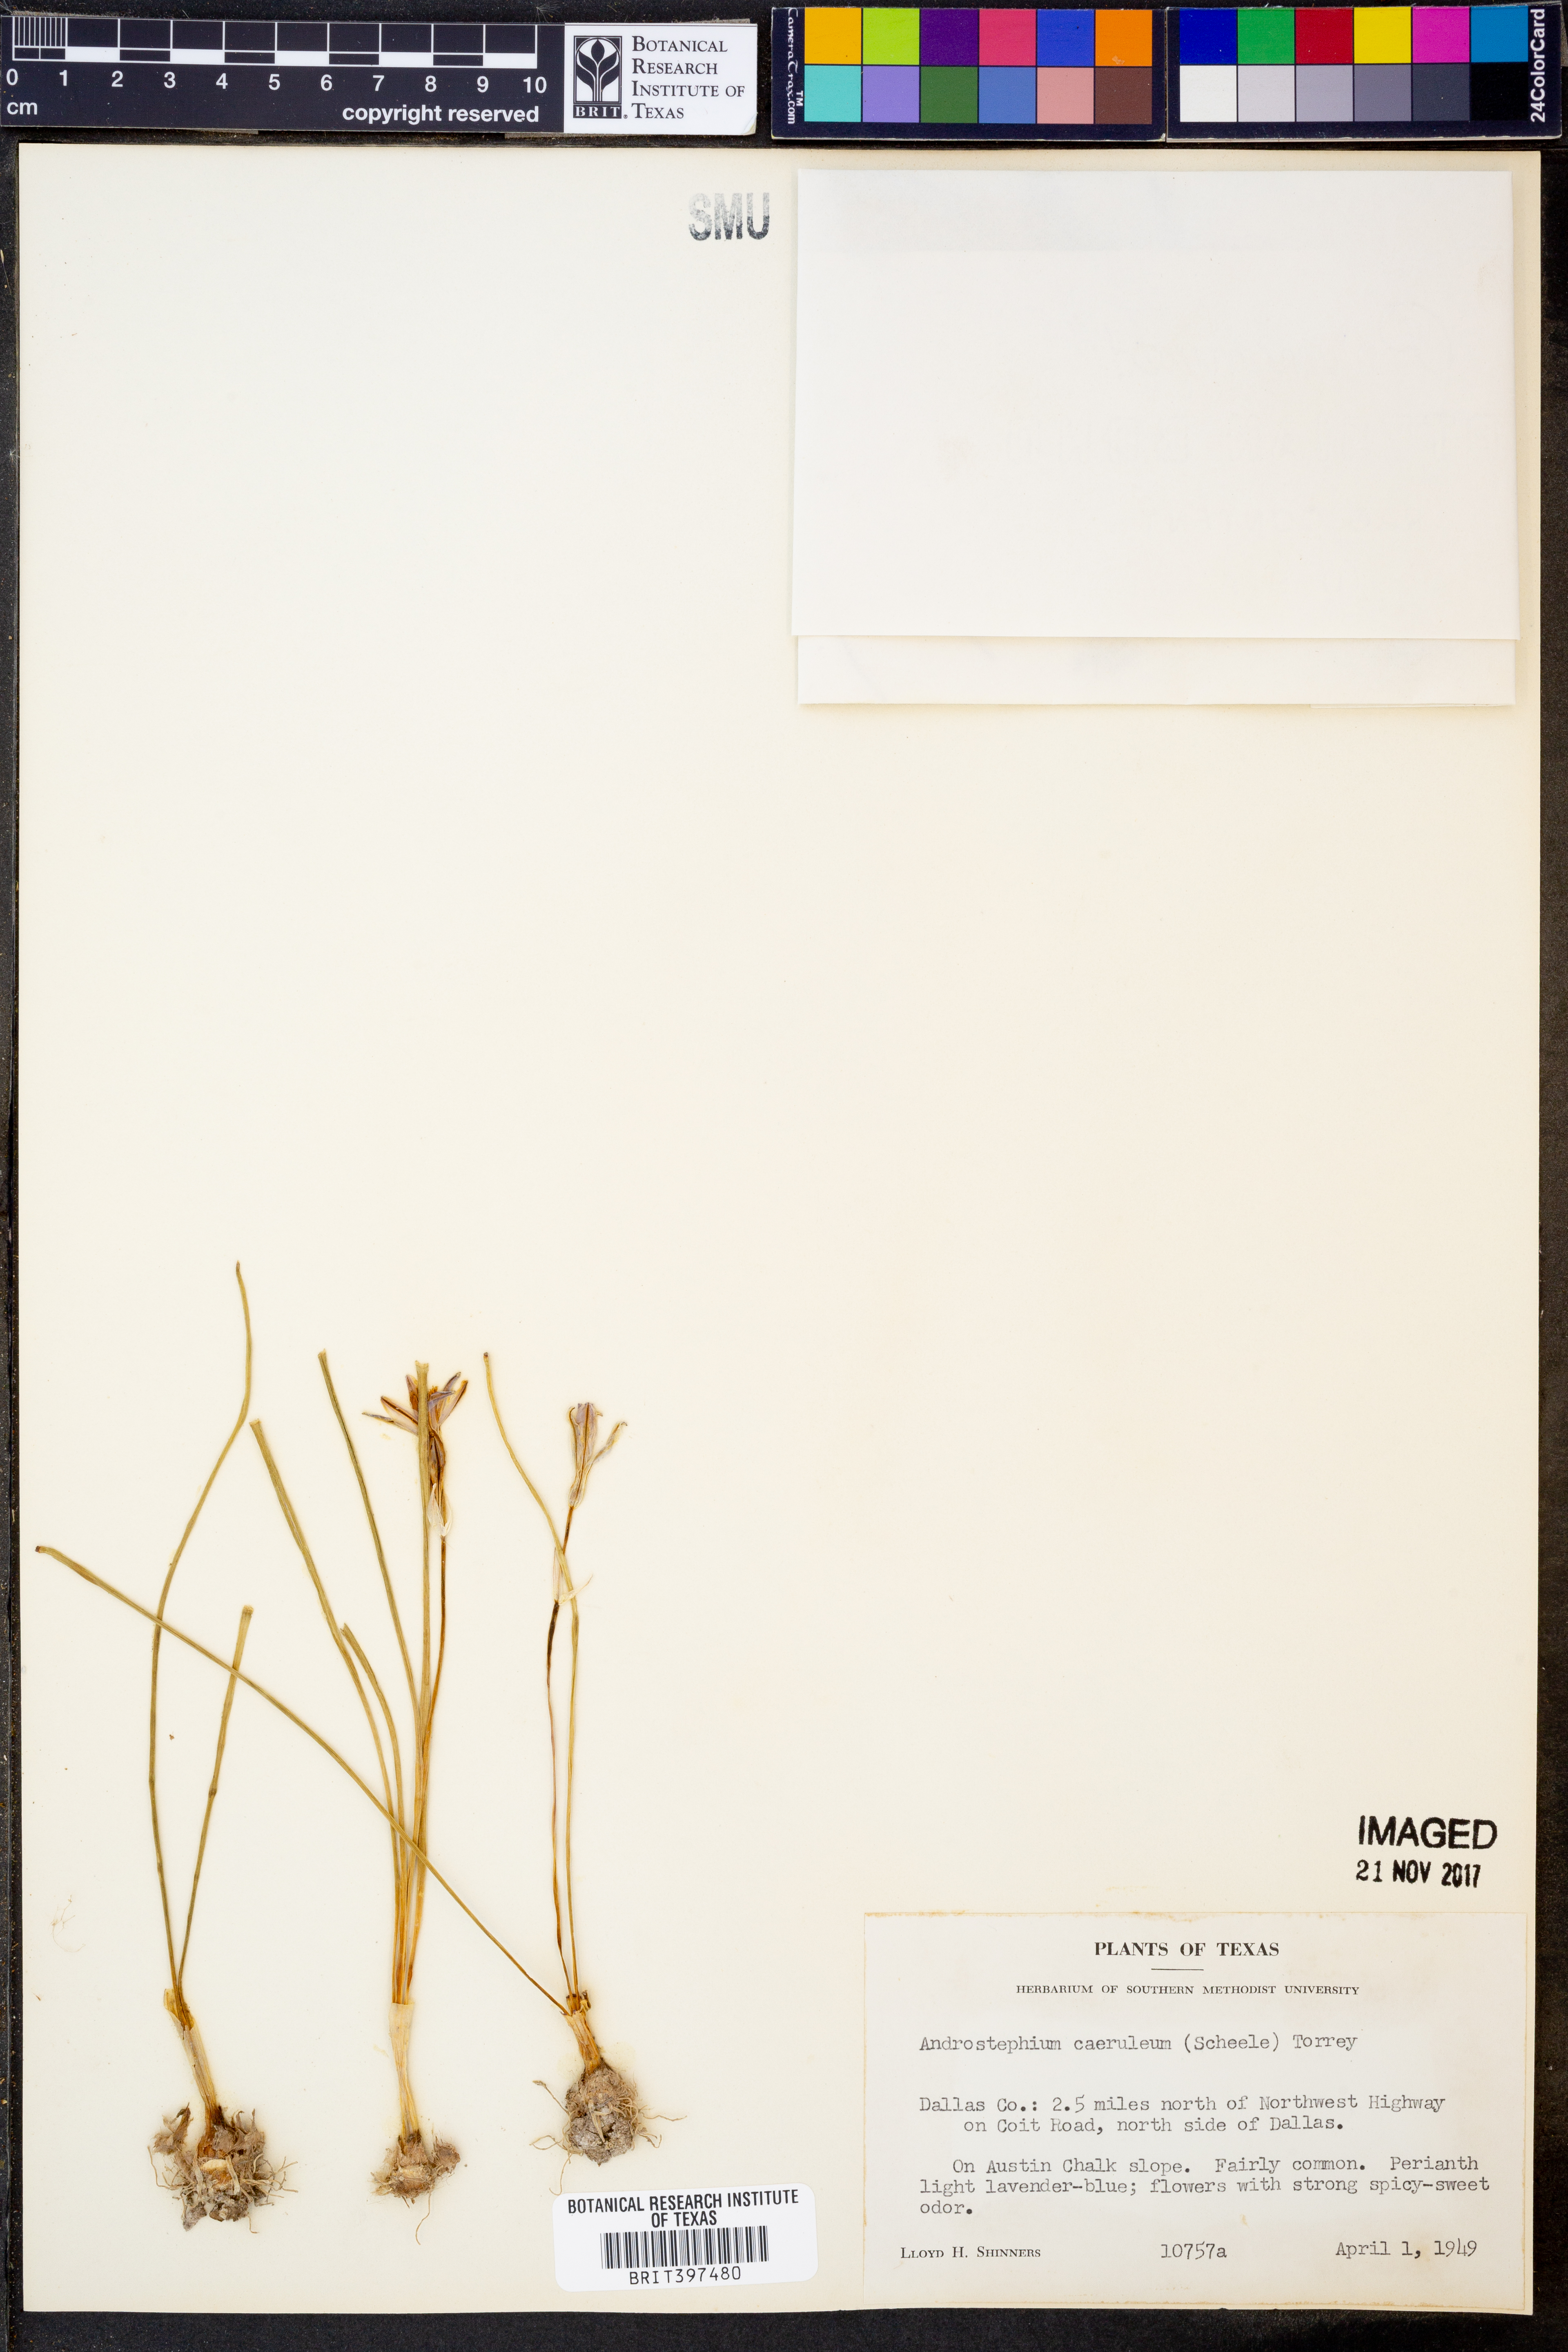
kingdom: Plantae
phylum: Tracheophyta
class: Liliopsida
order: Asparagales
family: Asparagaceae
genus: Androstephium
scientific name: Androstephium caeruleum
